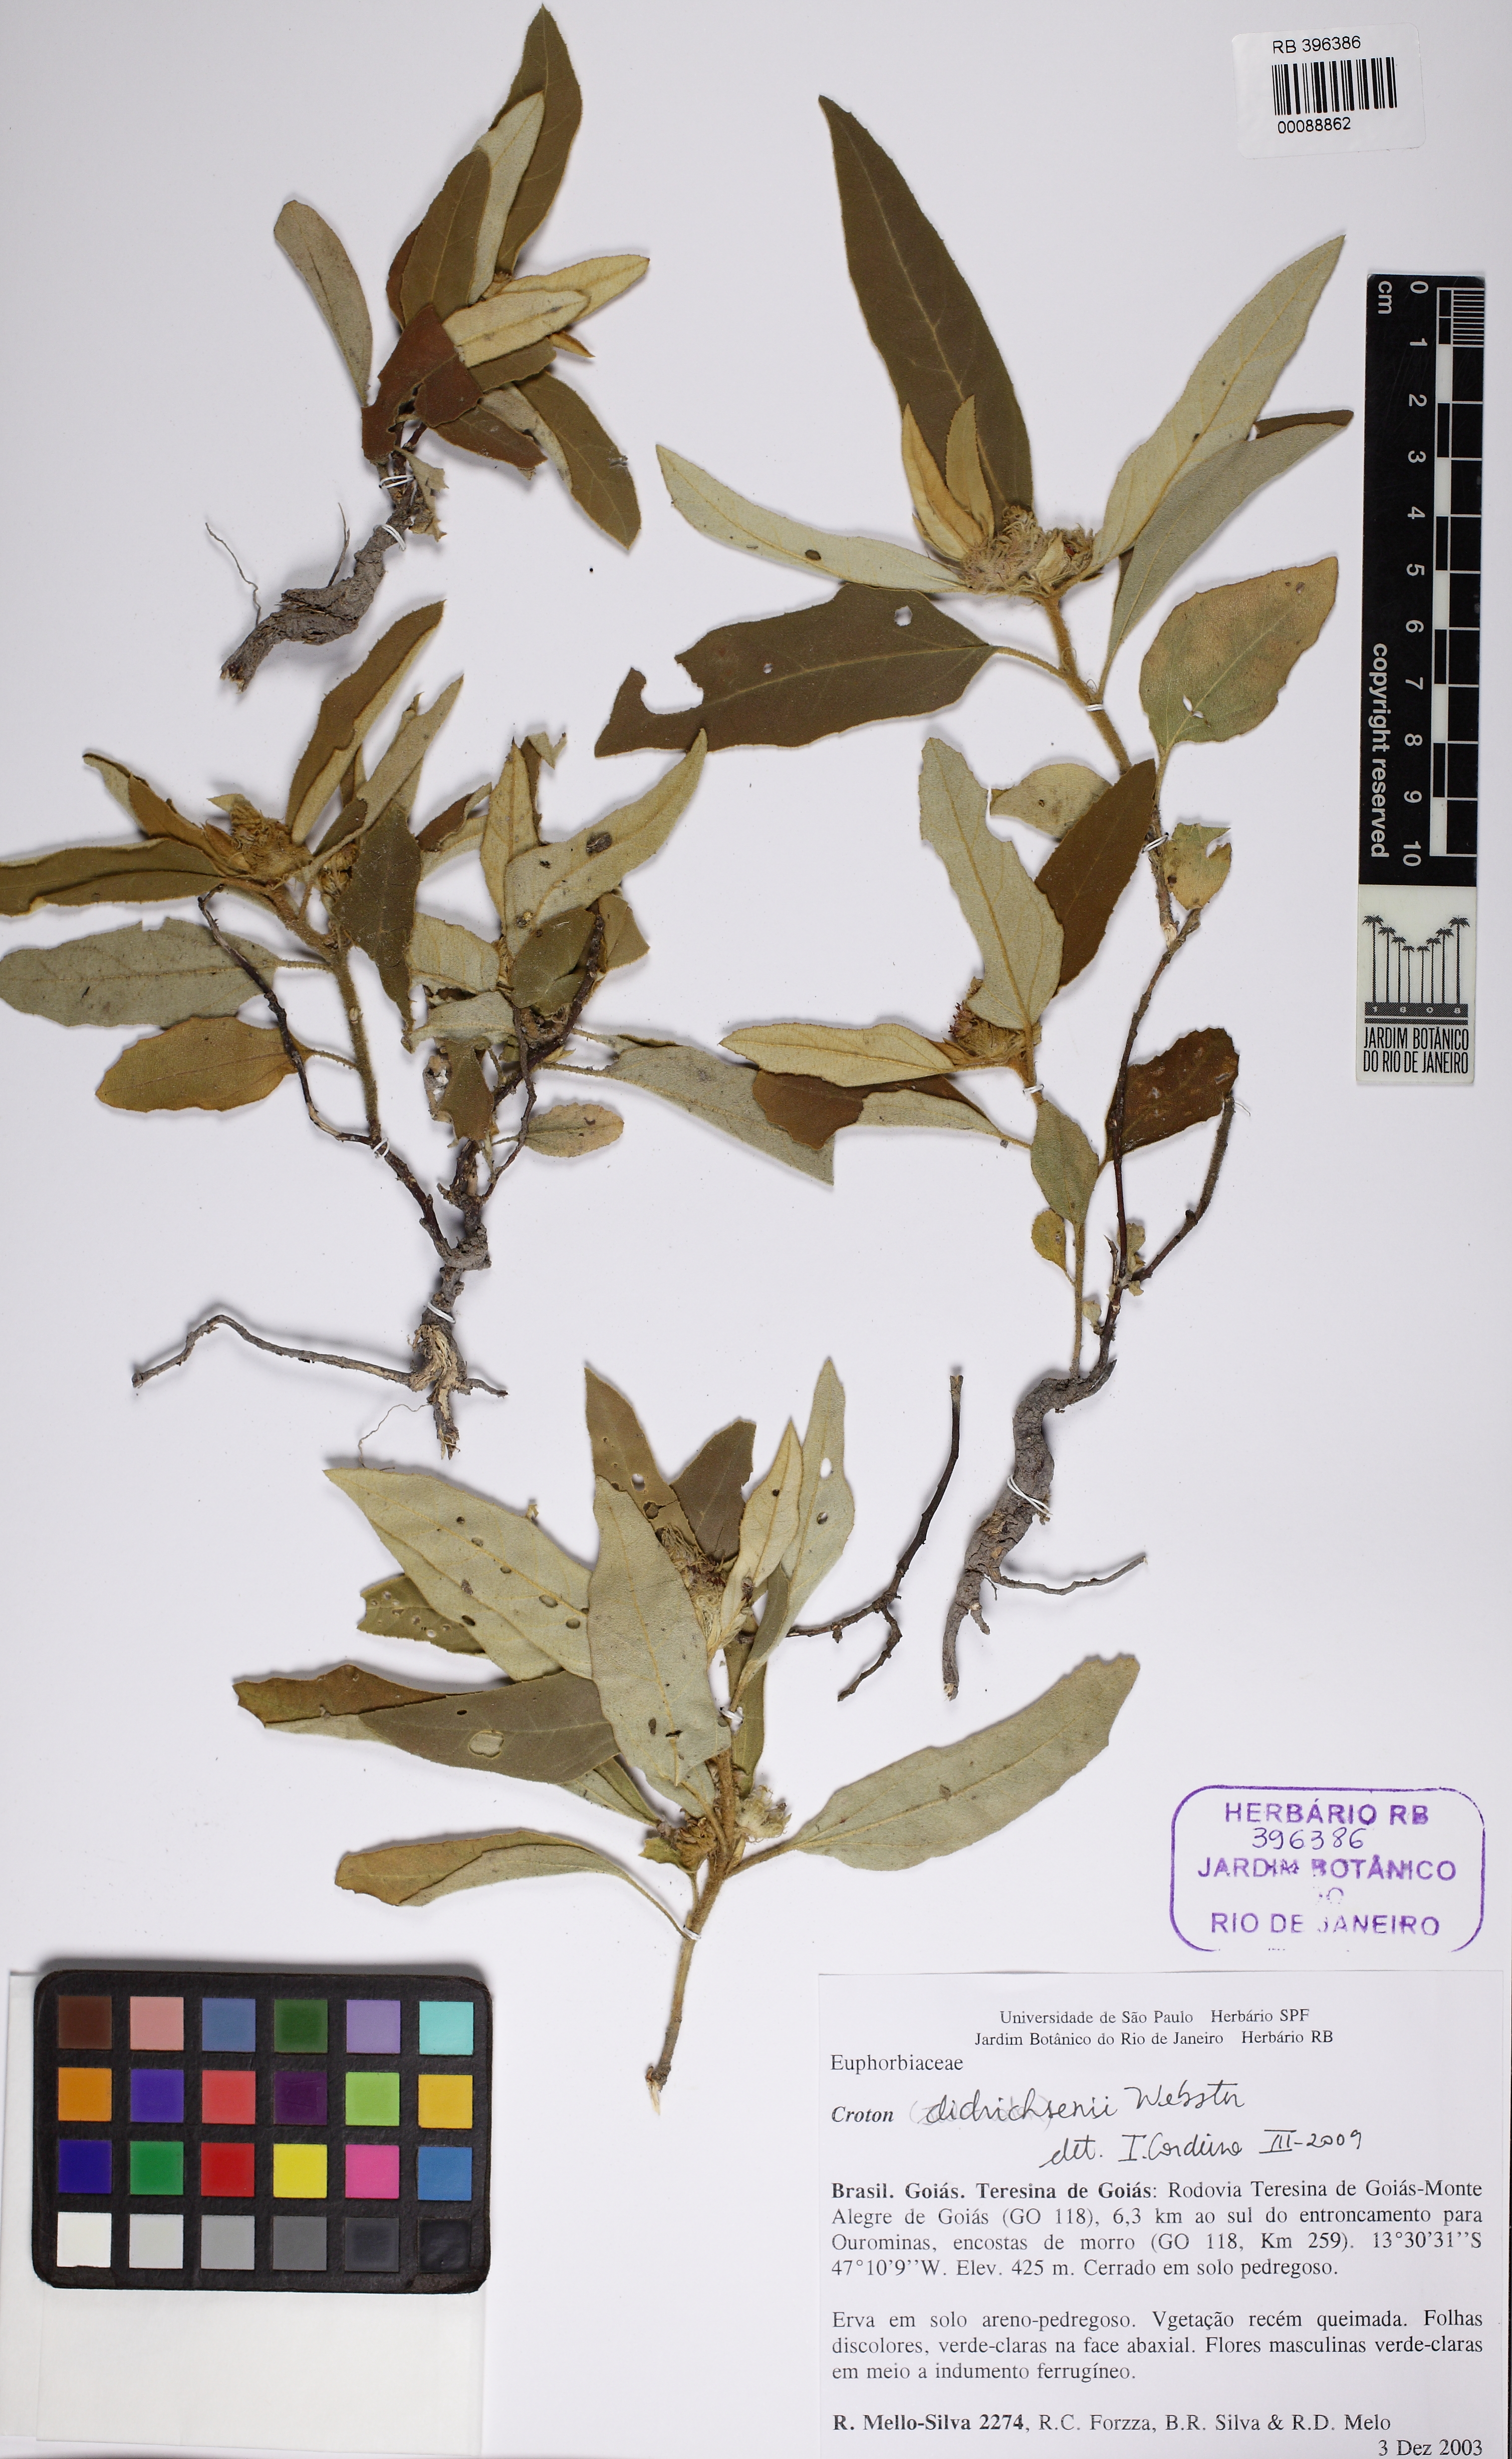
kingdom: Plantae
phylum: Tracheophyta
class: Magnoliopsida
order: Malpighiales
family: Euphorbiaceae
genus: Croton
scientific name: Croton solanaceus
